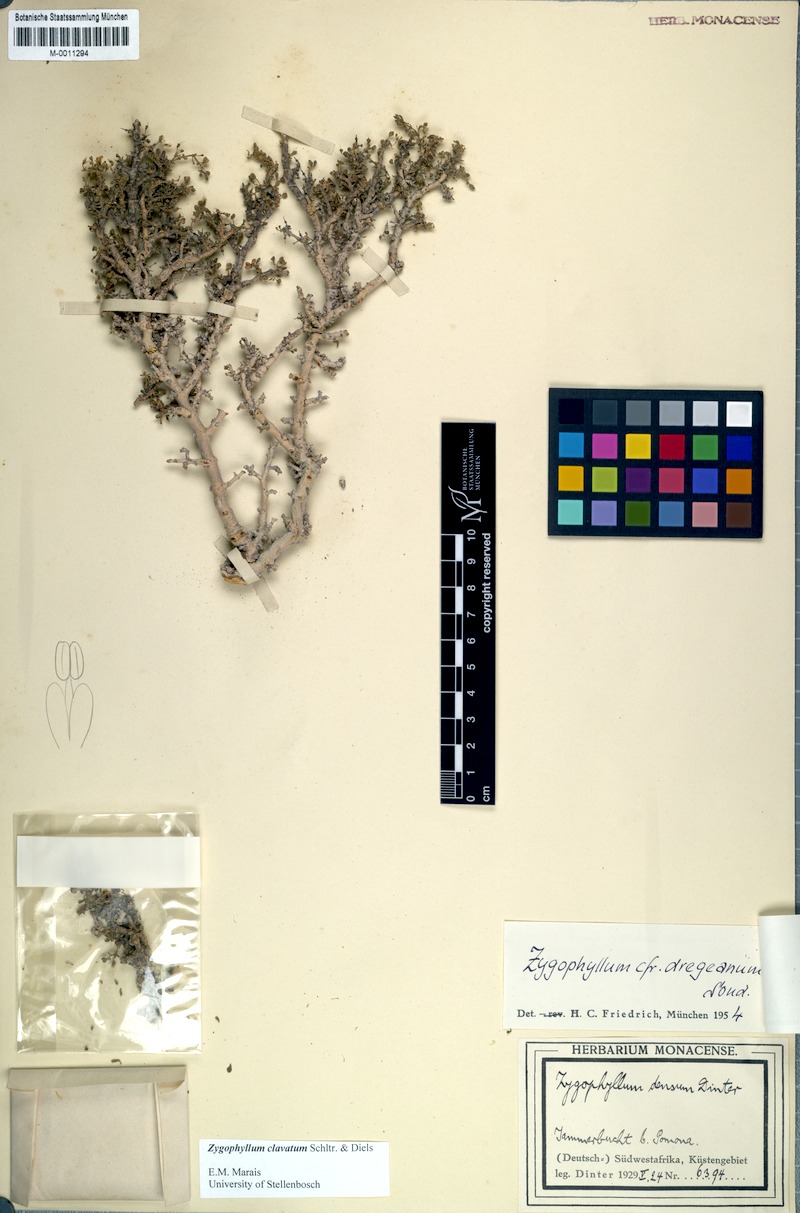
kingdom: Plantae
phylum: Tracheophyta
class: Magnoliopsida
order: Zygophyllales
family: Zygophyllaceae
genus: Tetraena
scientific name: Tetraena clavata
